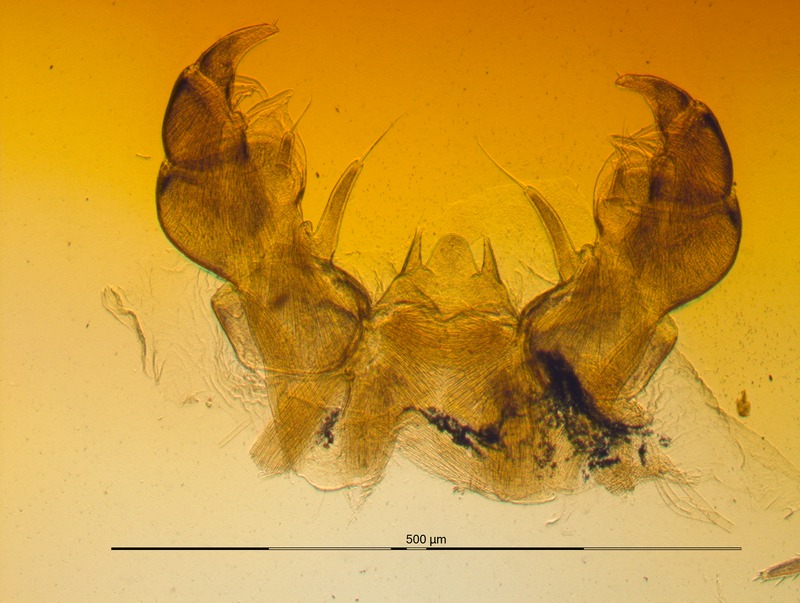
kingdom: Animalia
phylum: Arthropoda
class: Diplopoda
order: Glomerida
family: Glomeridae
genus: Glomeris
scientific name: Glomeris klugii
